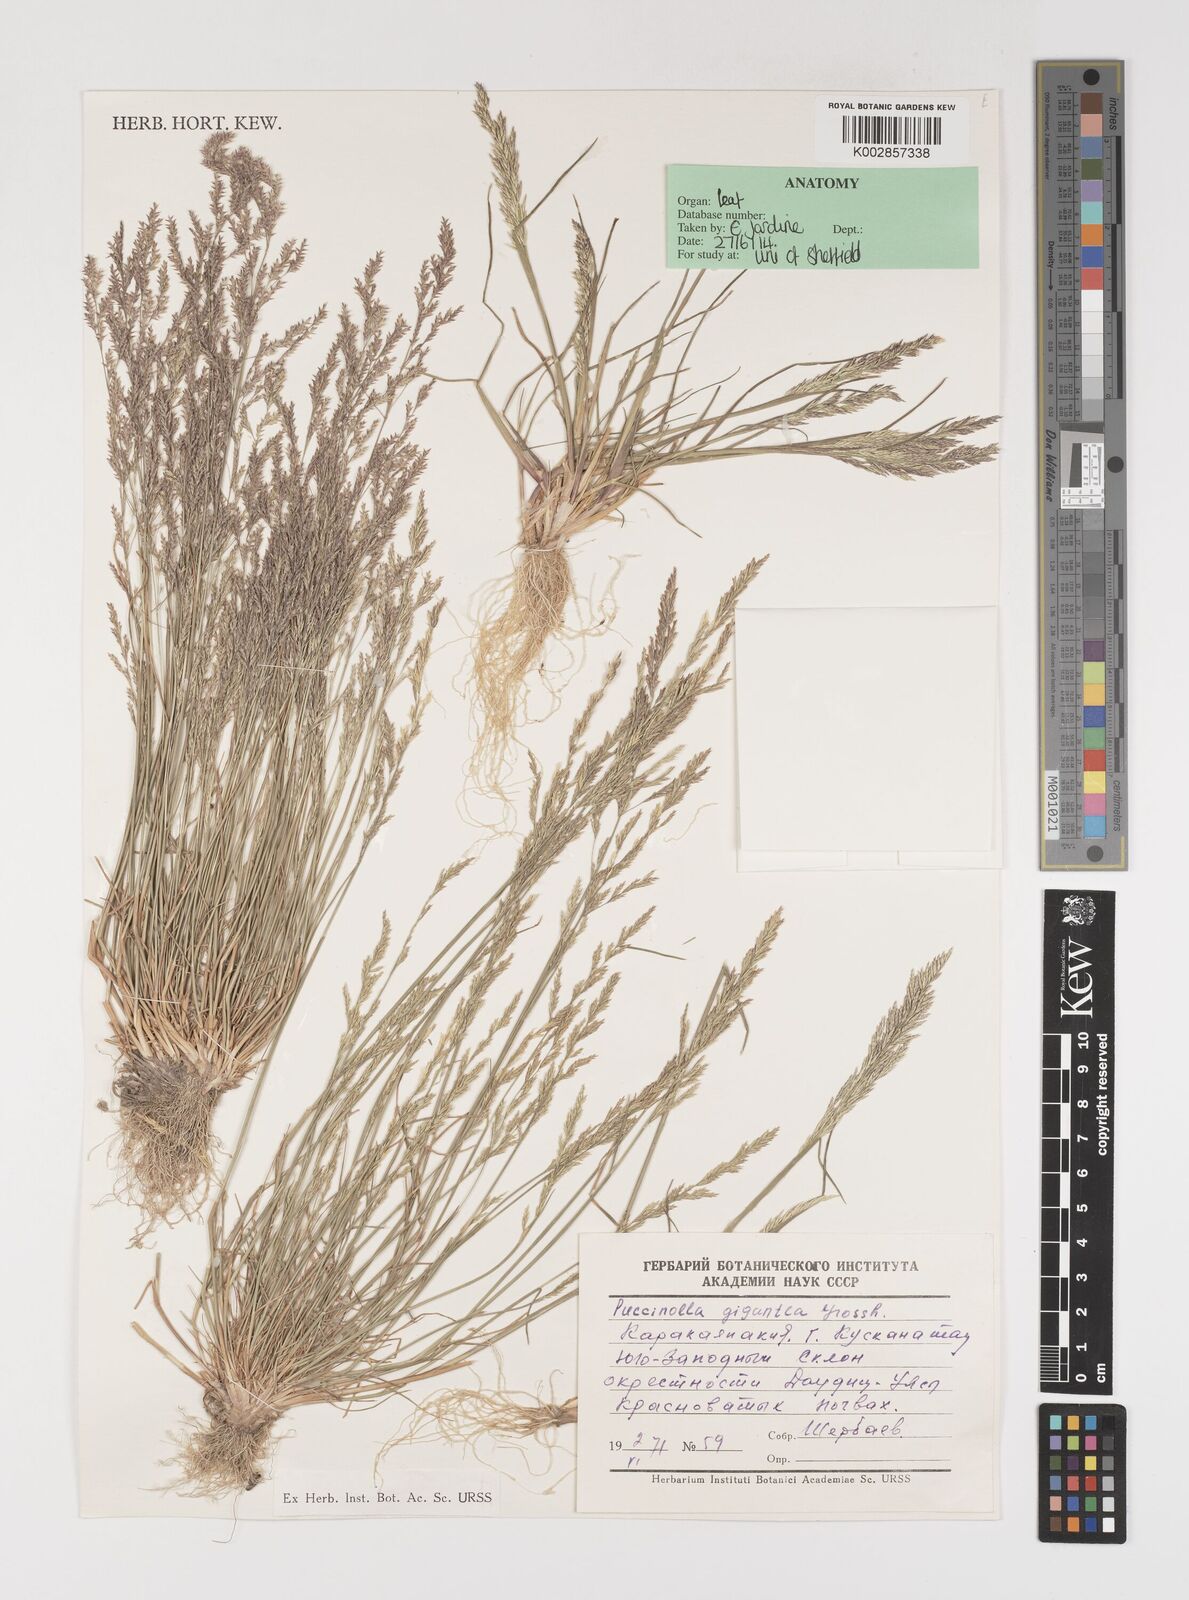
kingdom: Plantae
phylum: Tracheophyta
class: Liliopsida
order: Poales
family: Poaceae
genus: Puccinellia
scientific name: Puccinellia gigantea
